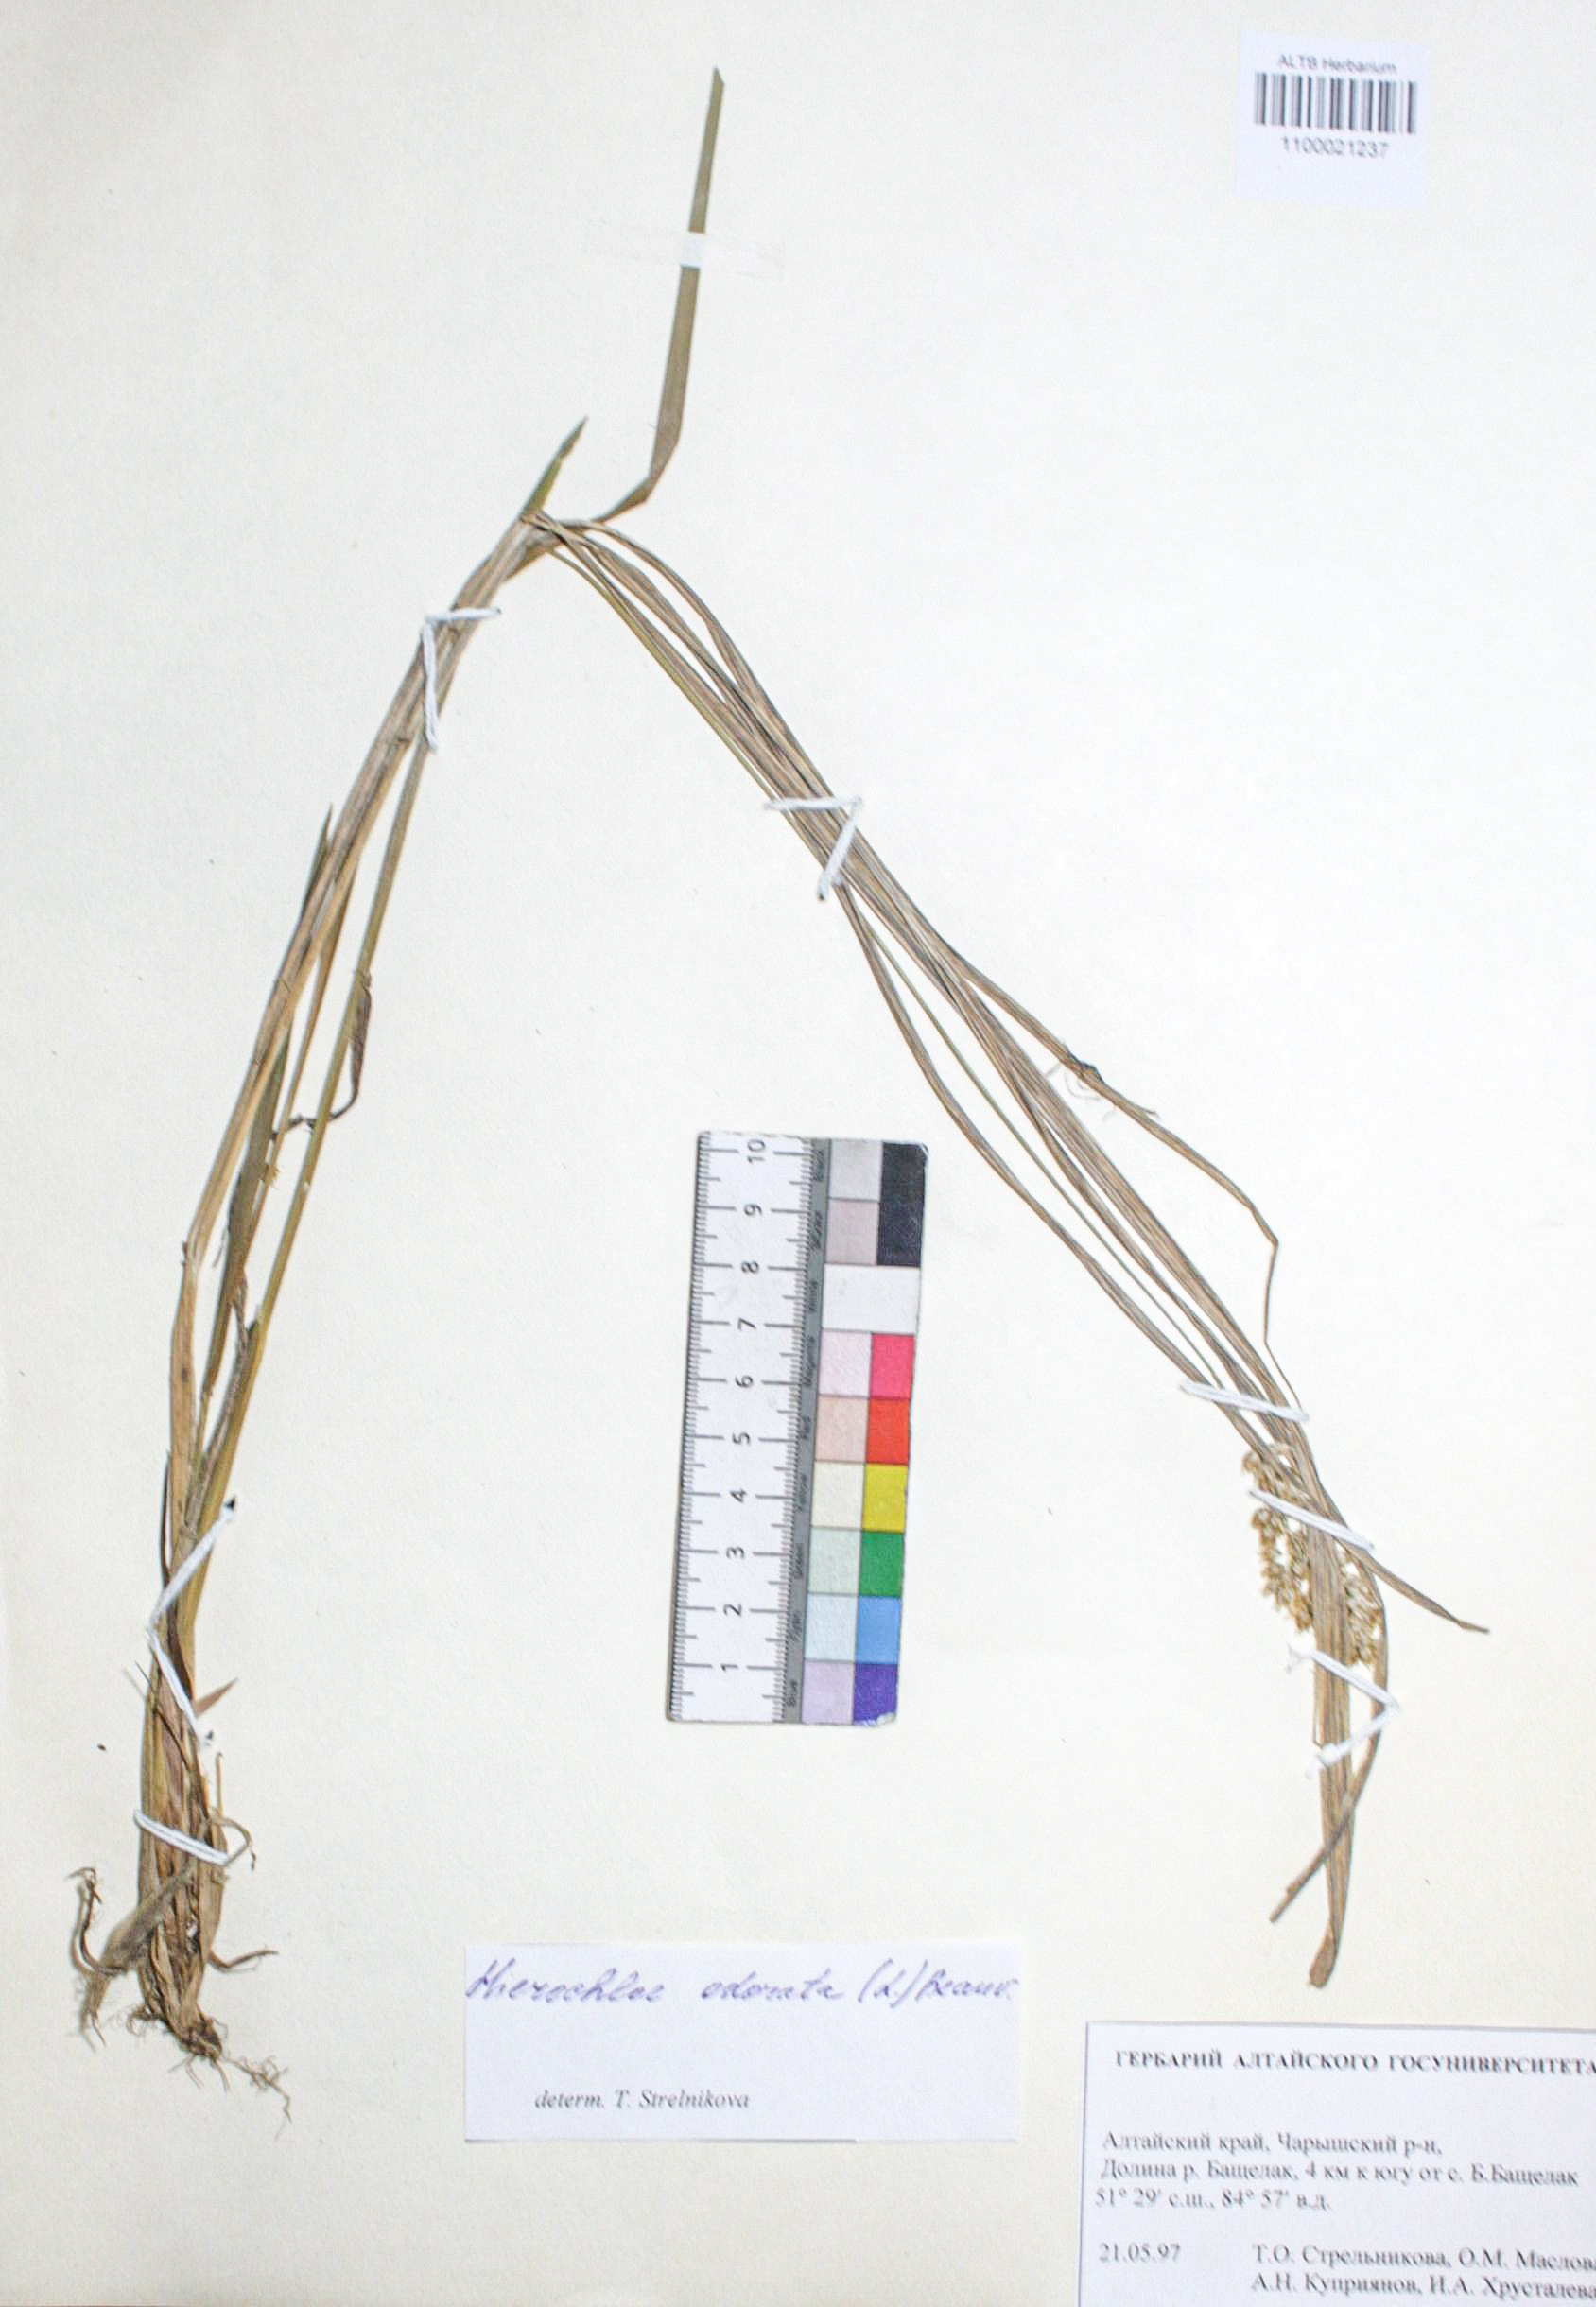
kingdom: Plantae
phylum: Tracheophyta
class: Liliopsida
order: Poales
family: Poaceae
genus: Anthoxanthum
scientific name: Anthoxanthum nitens
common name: Holy grass
